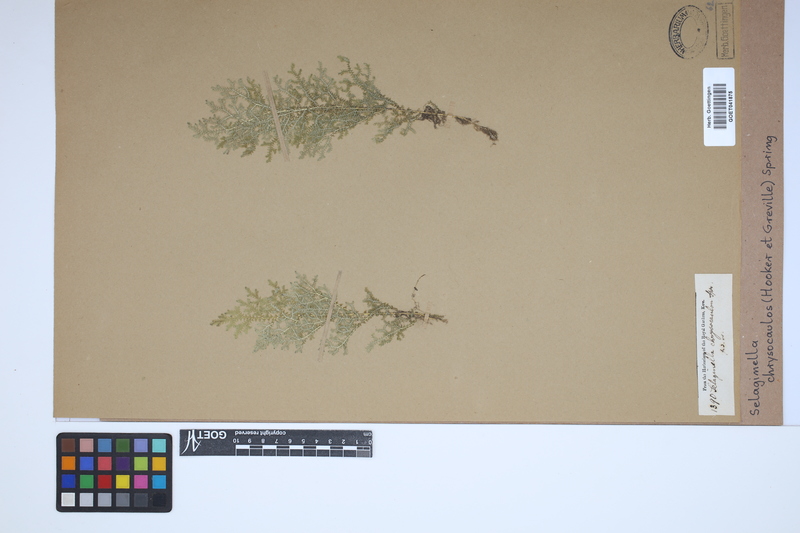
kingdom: Plantae
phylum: Tracheophyta
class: Lycopodiopsida
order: Selaginellales
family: Selaginellaceae
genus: Selaginella
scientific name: Selaginella chrysocaulos
